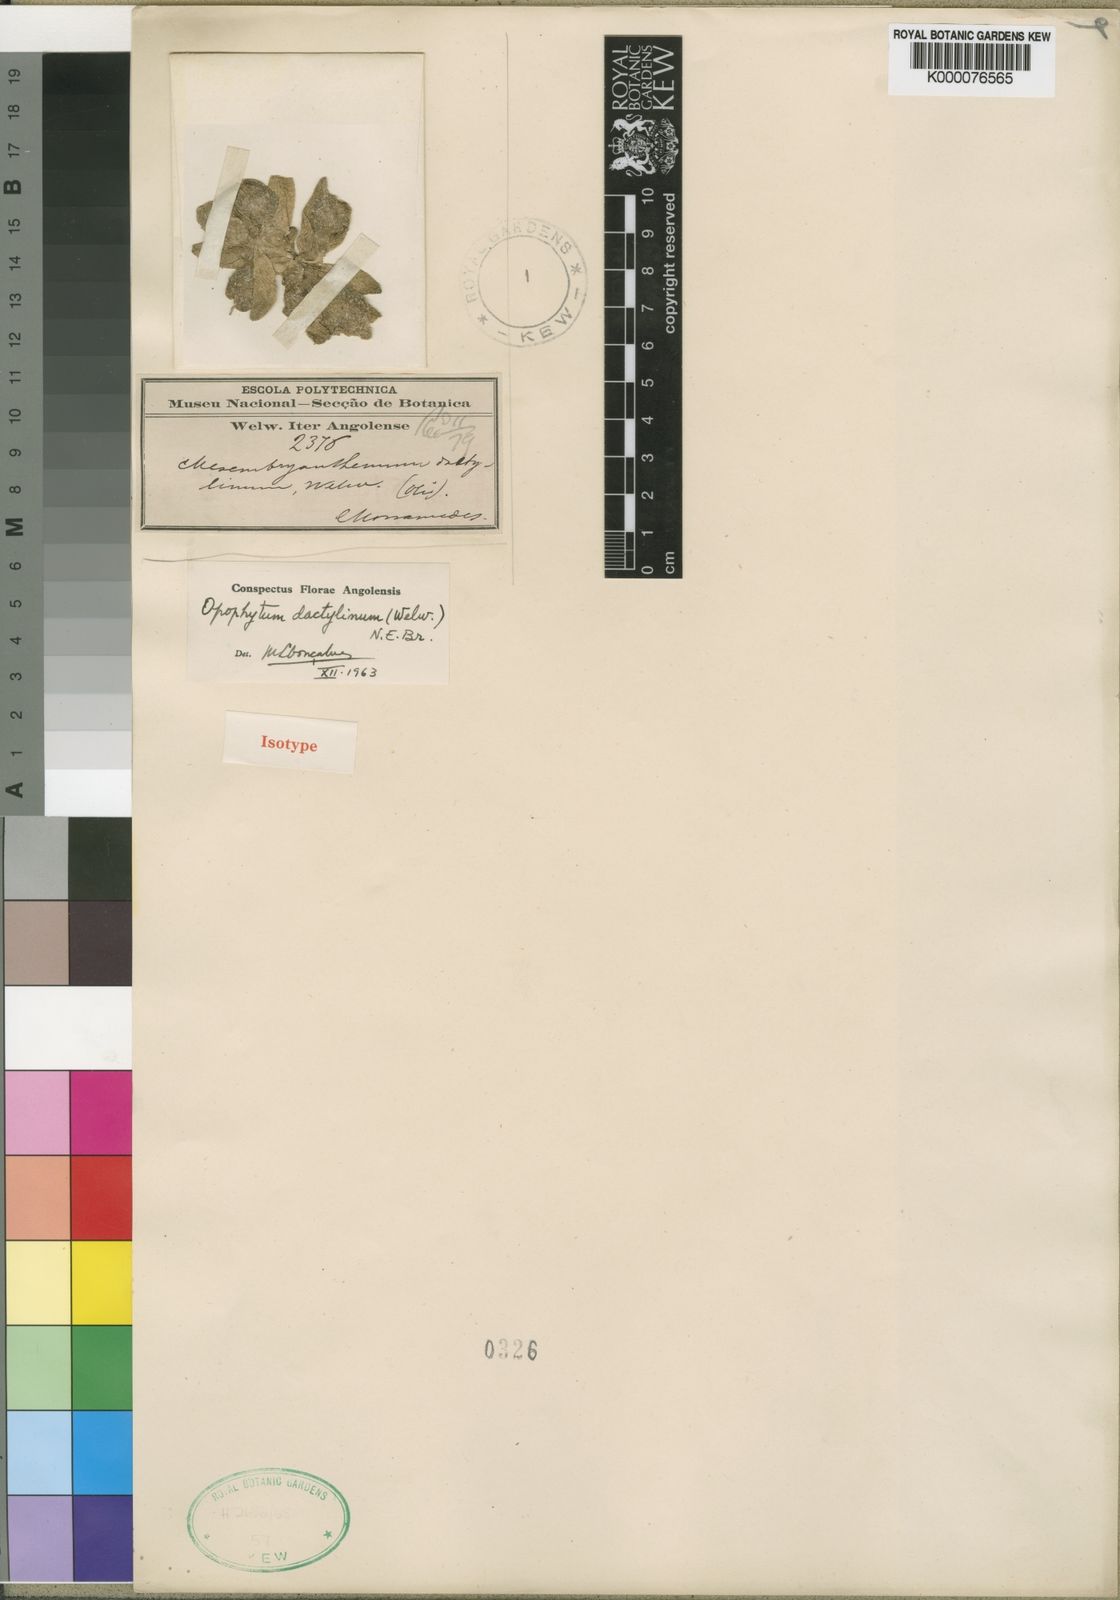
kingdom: Plantae
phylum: Tracheophyta
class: Magnoliopsida
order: Caryophyllales
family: Aizoaceae
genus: Mesembryanthemum
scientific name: Mesembryanthemum cryptanthum
